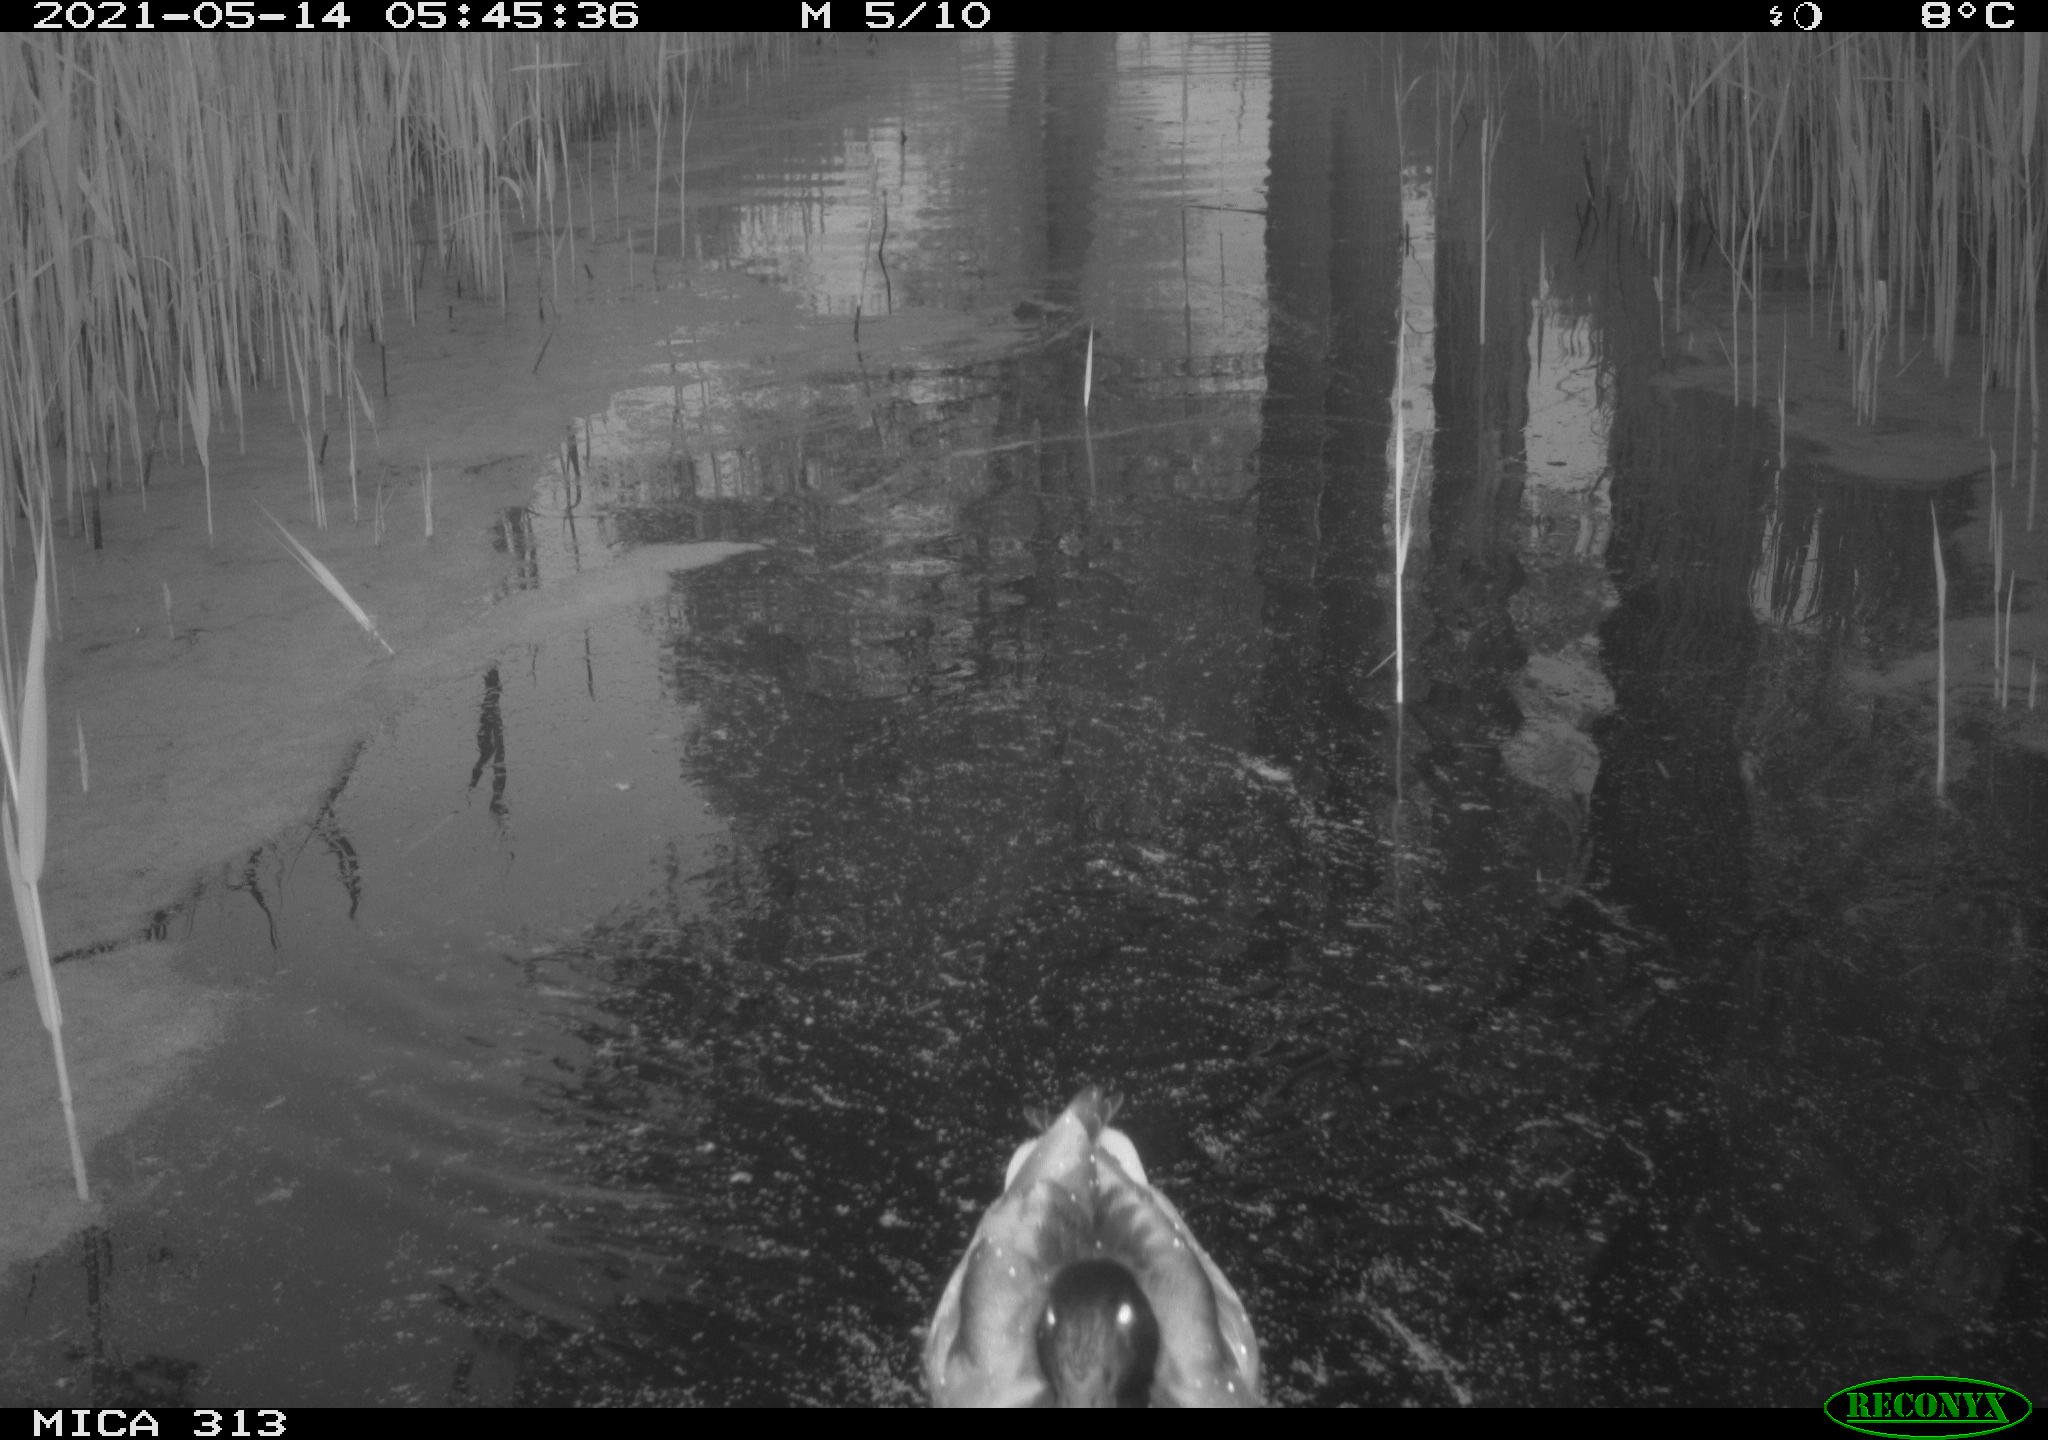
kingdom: Animalia
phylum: Chordata
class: Aves
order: Gruiformes
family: Rallidae
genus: Gallinula
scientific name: Gallinula chloropus
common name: Common moorhen
